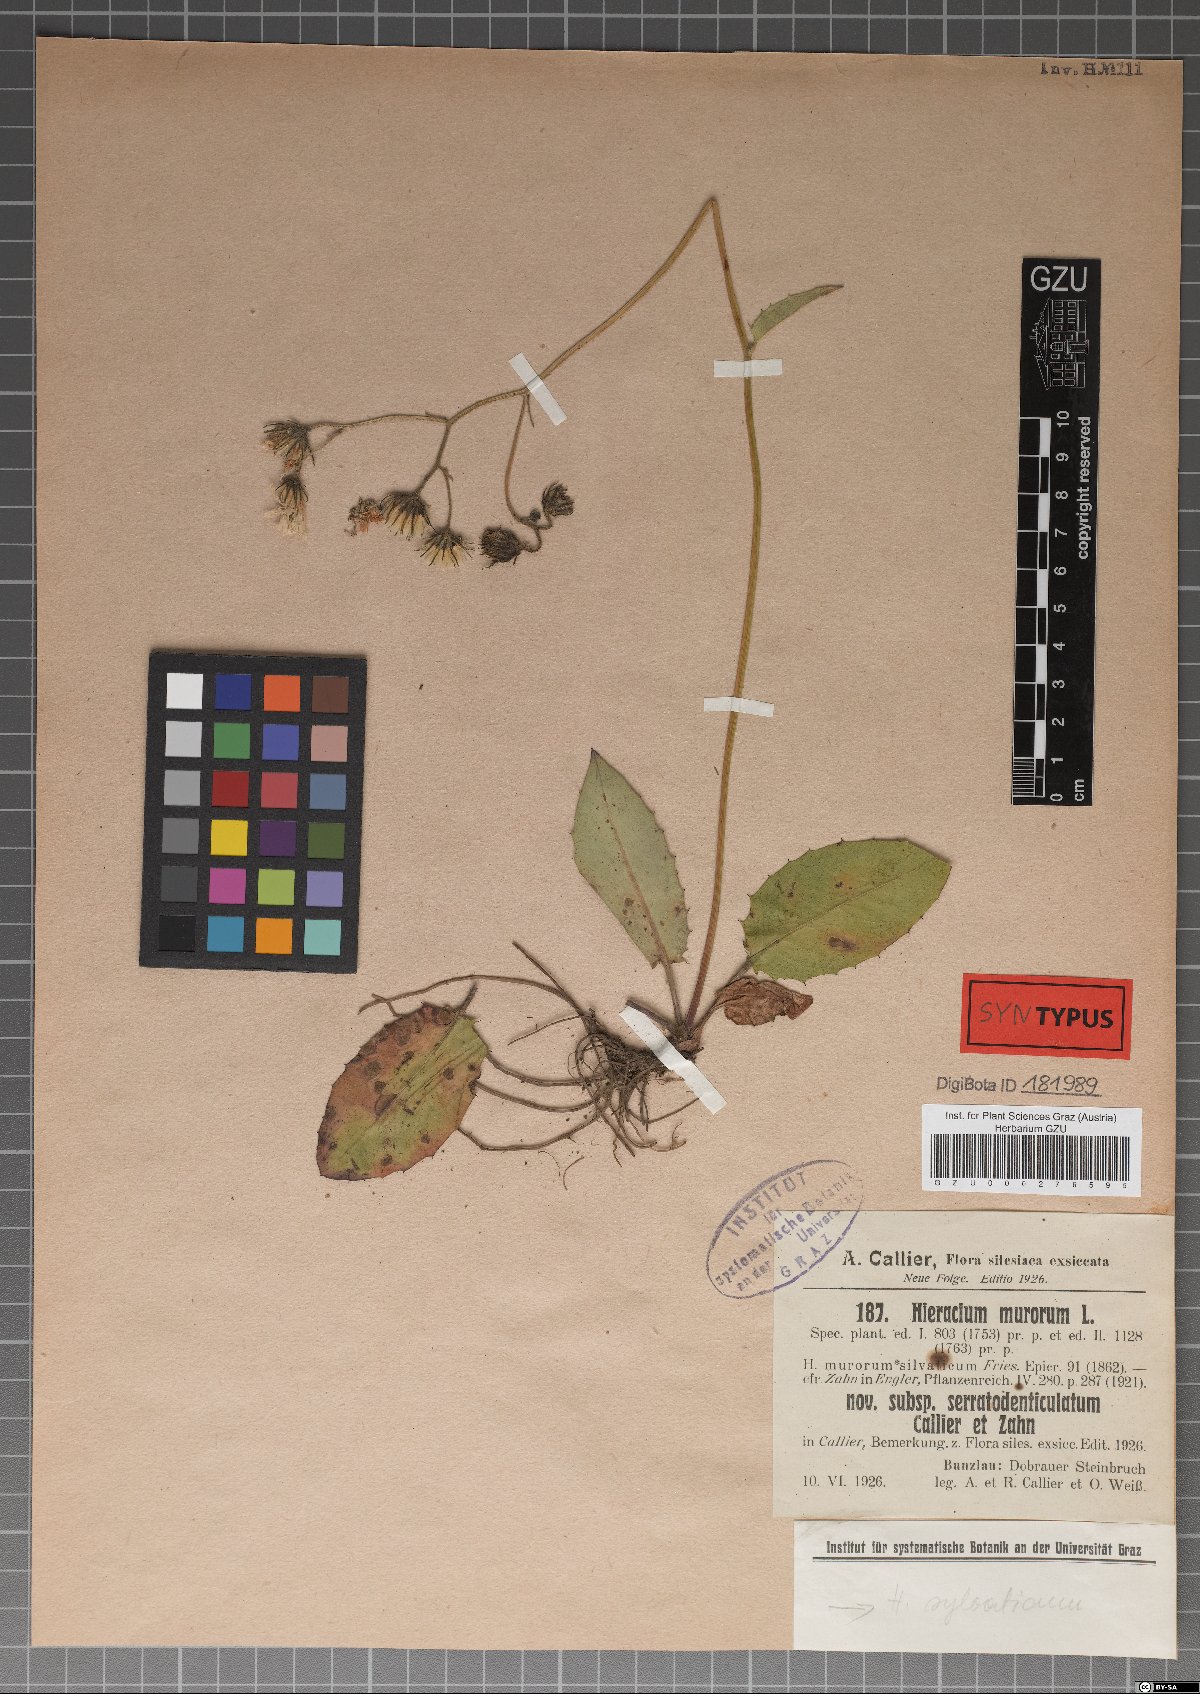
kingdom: Plantae
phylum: Tracheophyta
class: Magnoliopsida
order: Asterales
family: Asteraceae
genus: Hieracium
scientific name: Hieracium murorum
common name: Wall hawkweed
